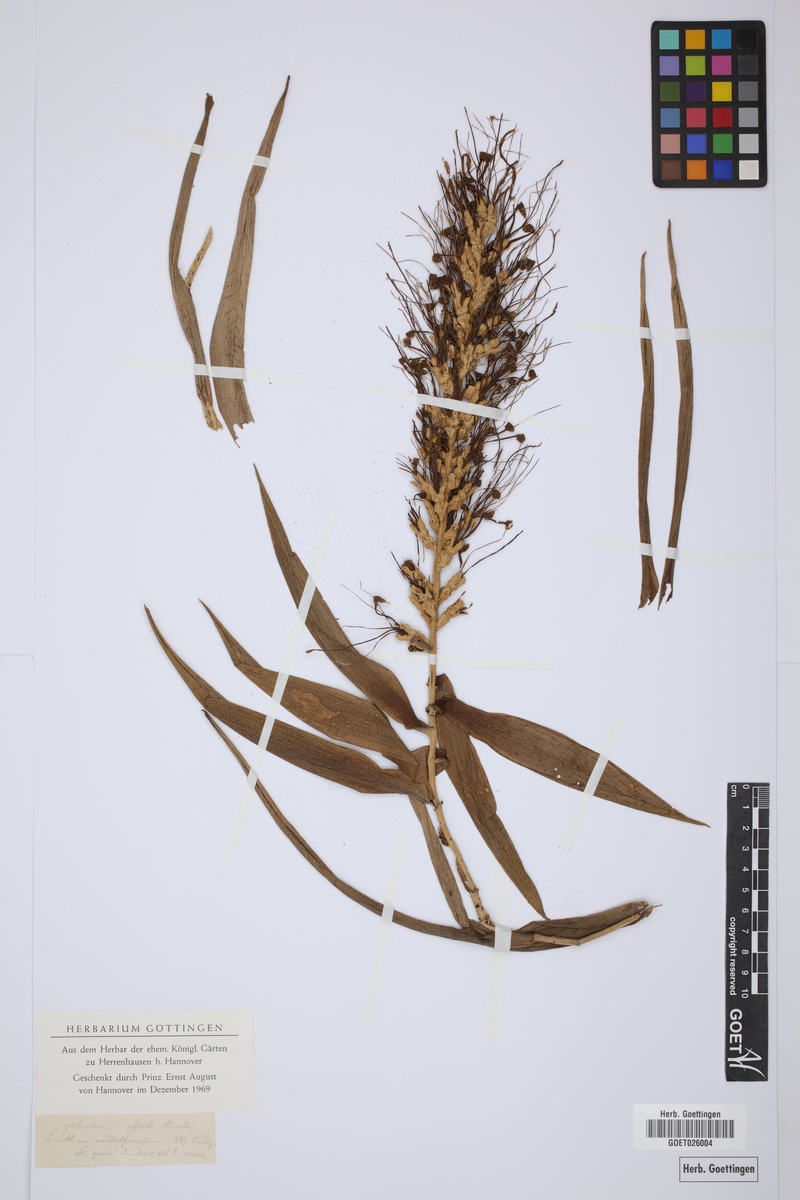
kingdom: Animalia
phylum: Mollusca
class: Gastropoda
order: Stylommatophora
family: Enidae
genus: Zebrina
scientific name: Zebrina
